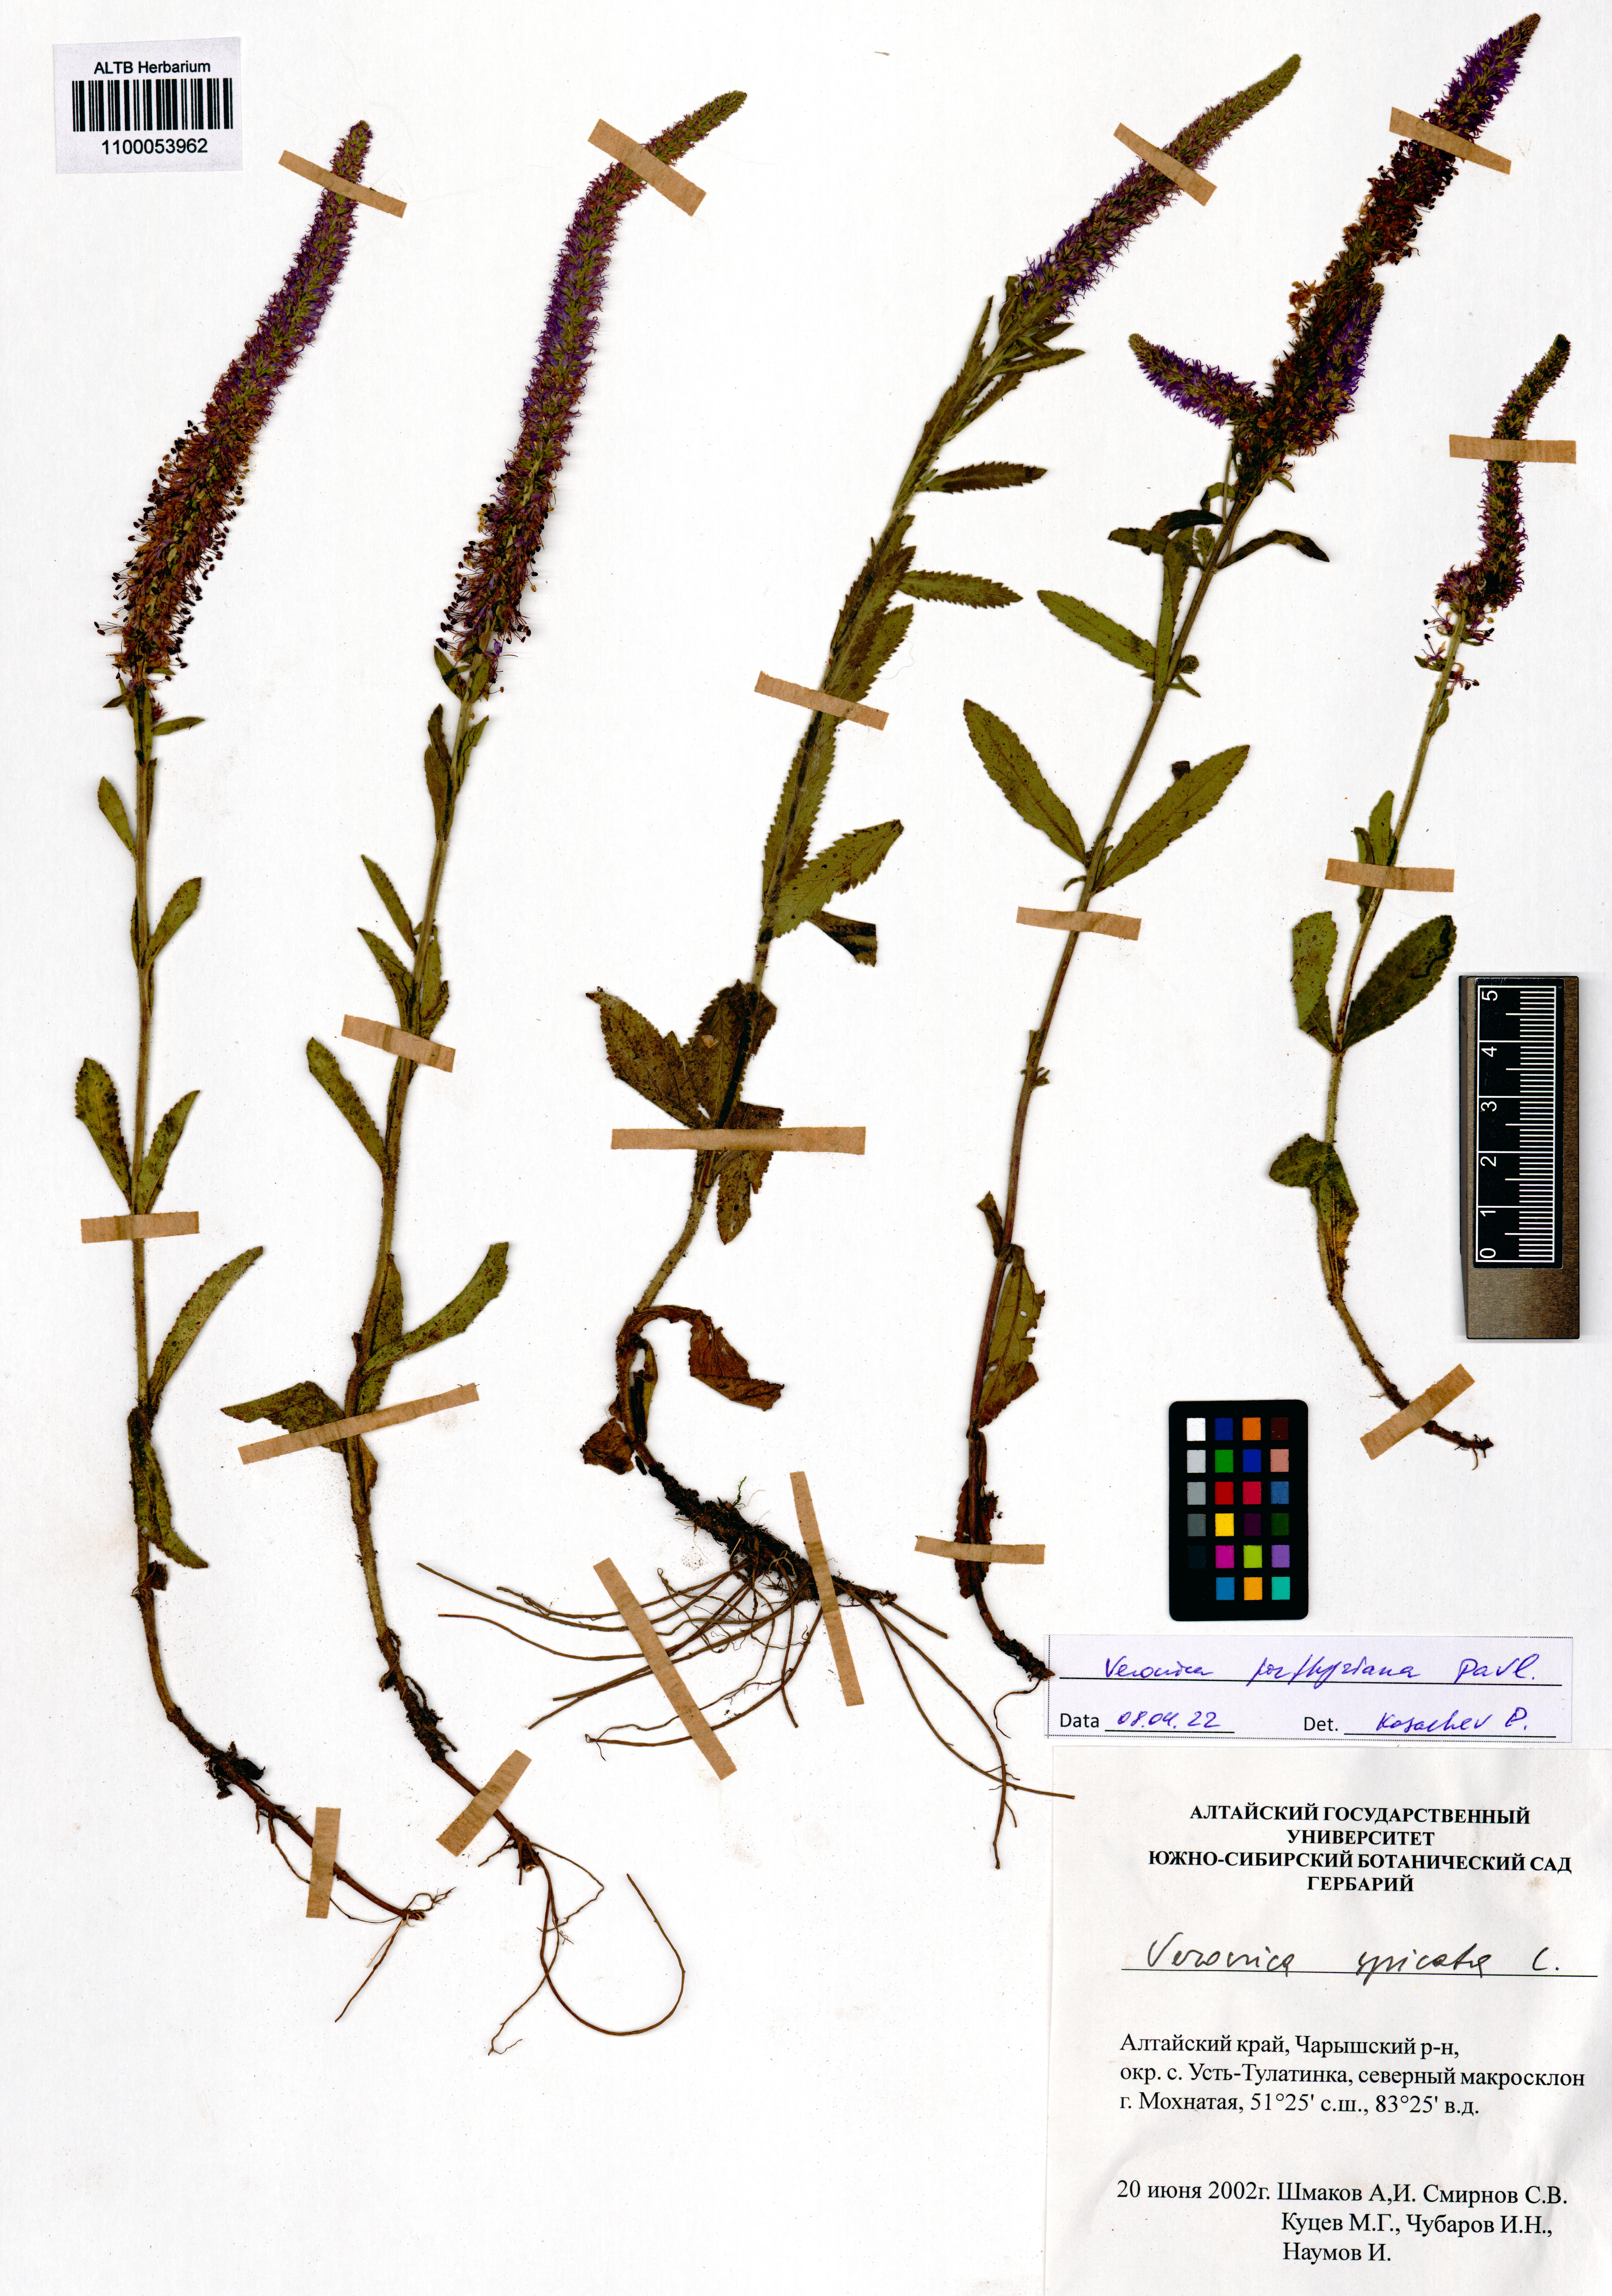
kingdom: Plantae
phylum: Tracheophyta
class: Magnoliopsida
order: Lamiales
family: Plantaginaceae
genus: Veronica
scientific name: Veronica porphyriana
